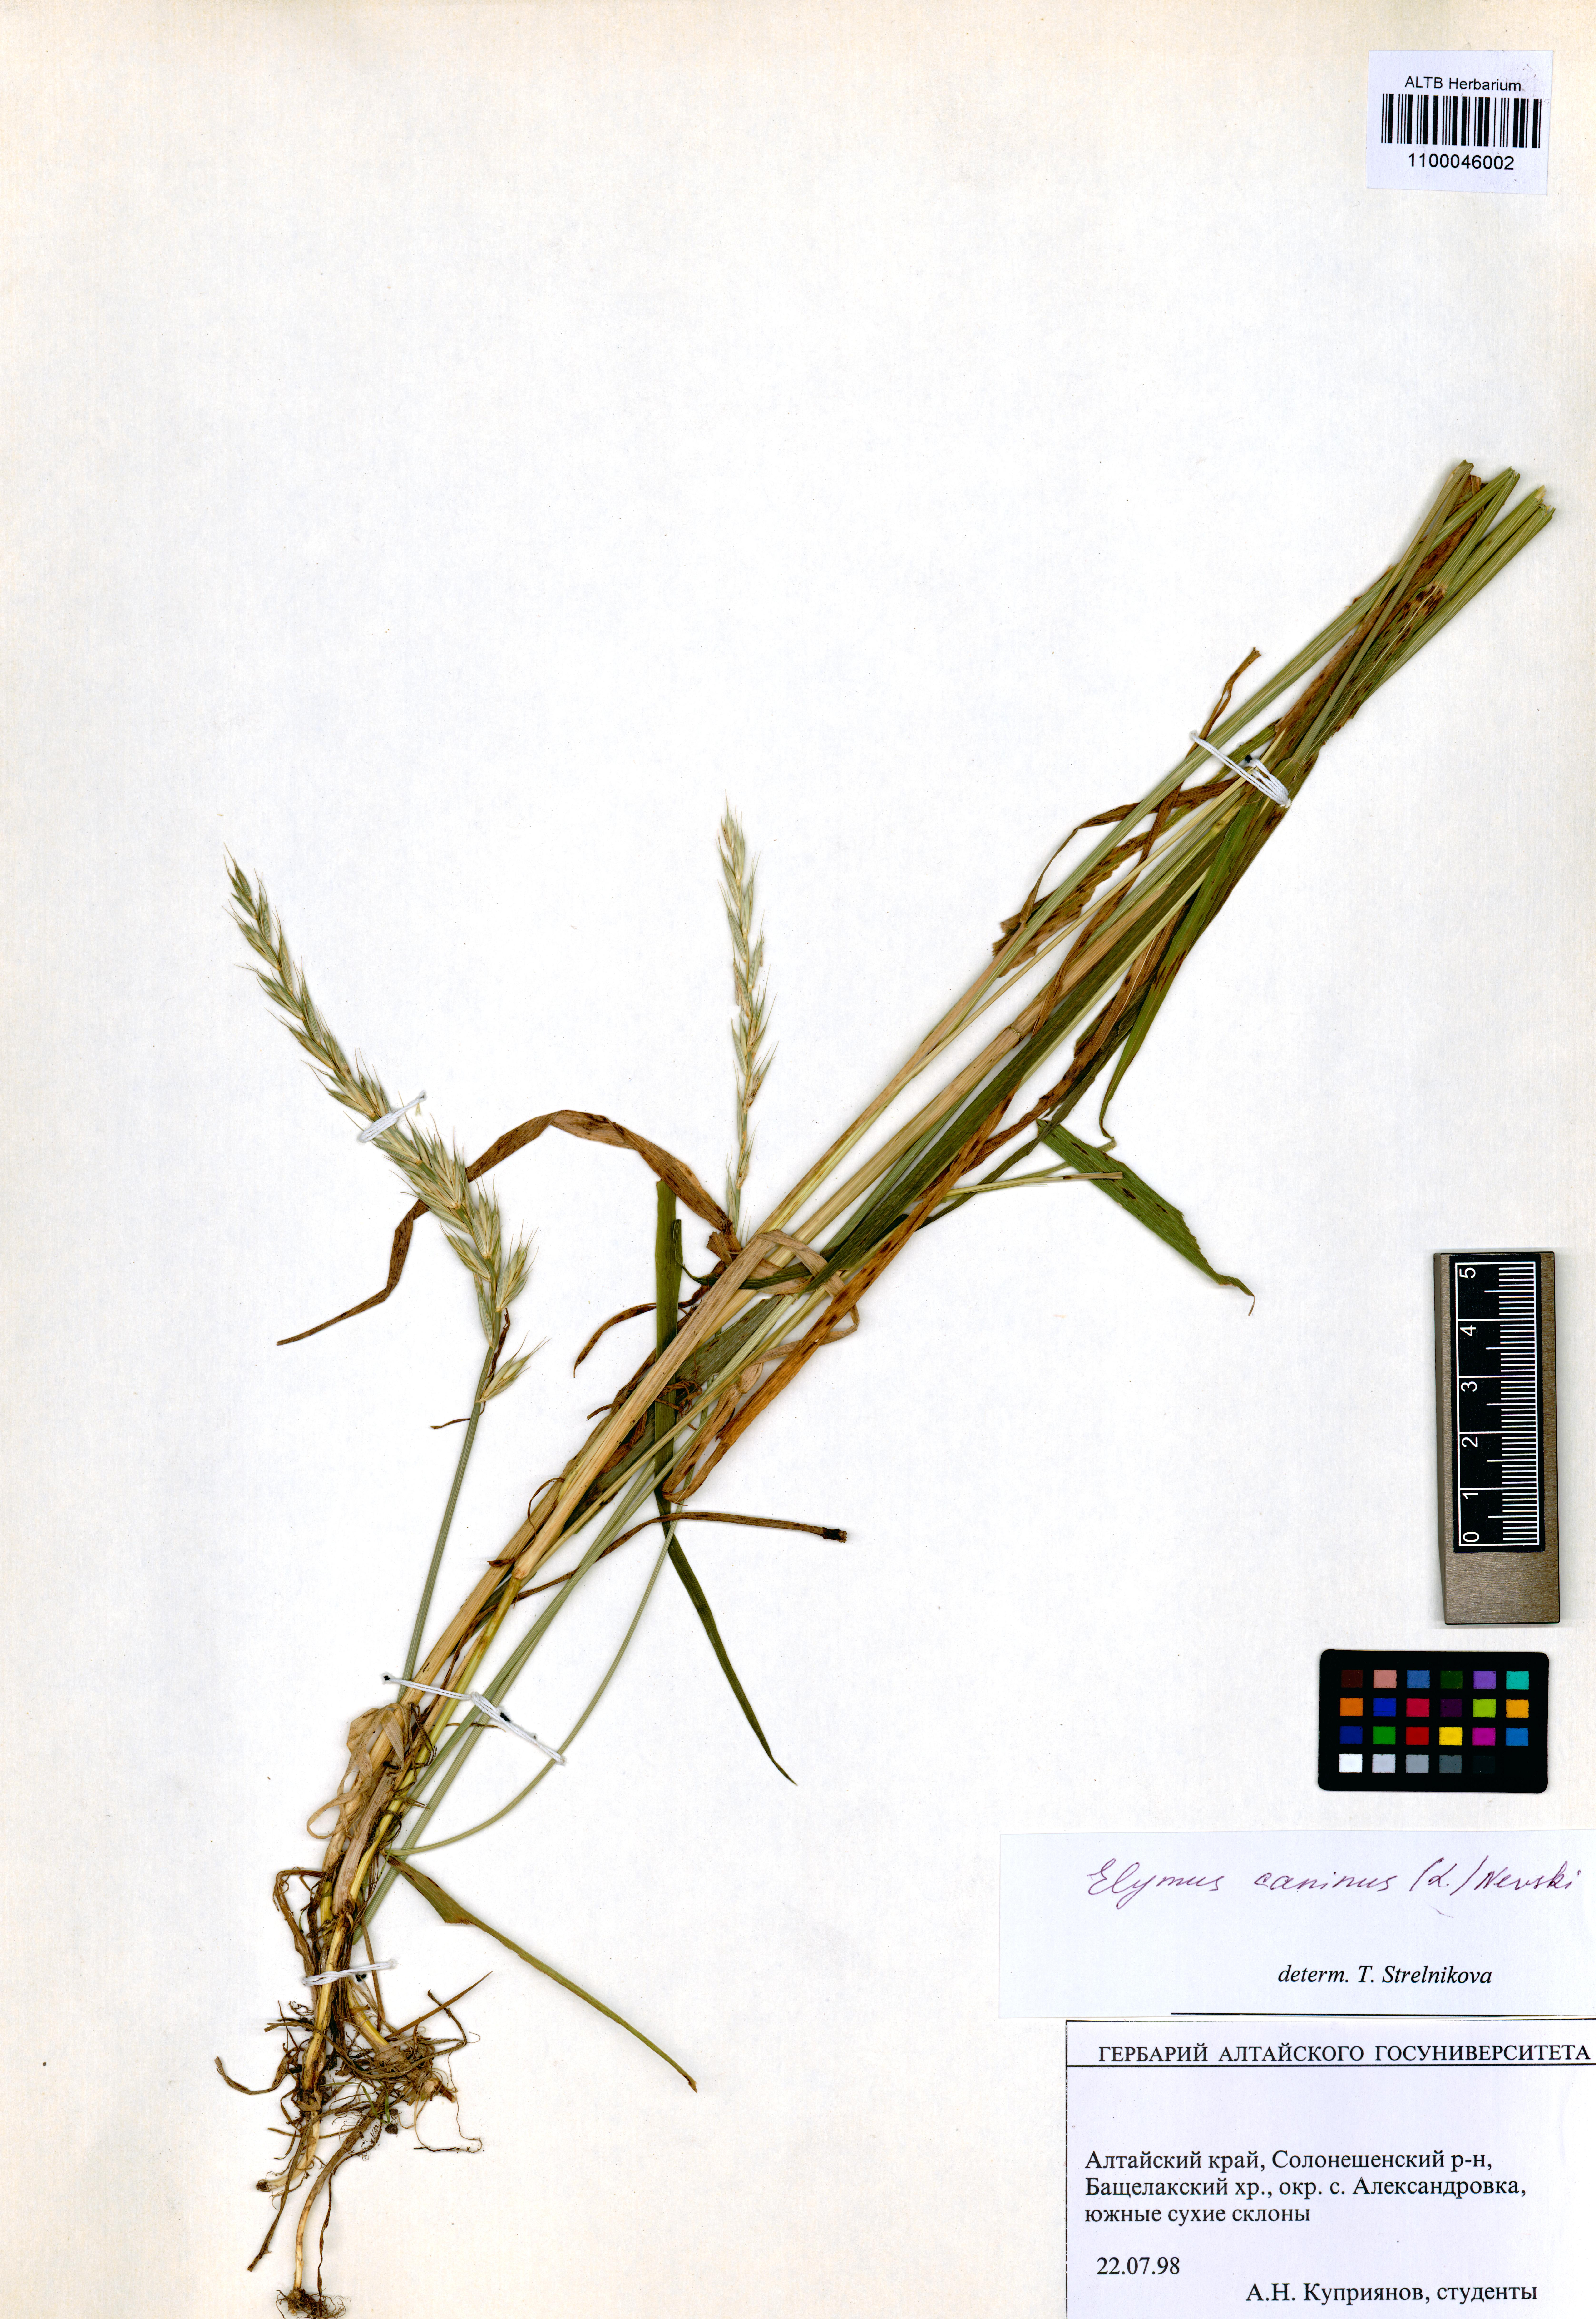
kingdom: Plantae
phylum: Tracheophyta
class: Liliopsida
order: Poales
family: Poaceae
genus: Elymus
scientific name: Elymus caninus
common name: Bearded couch
